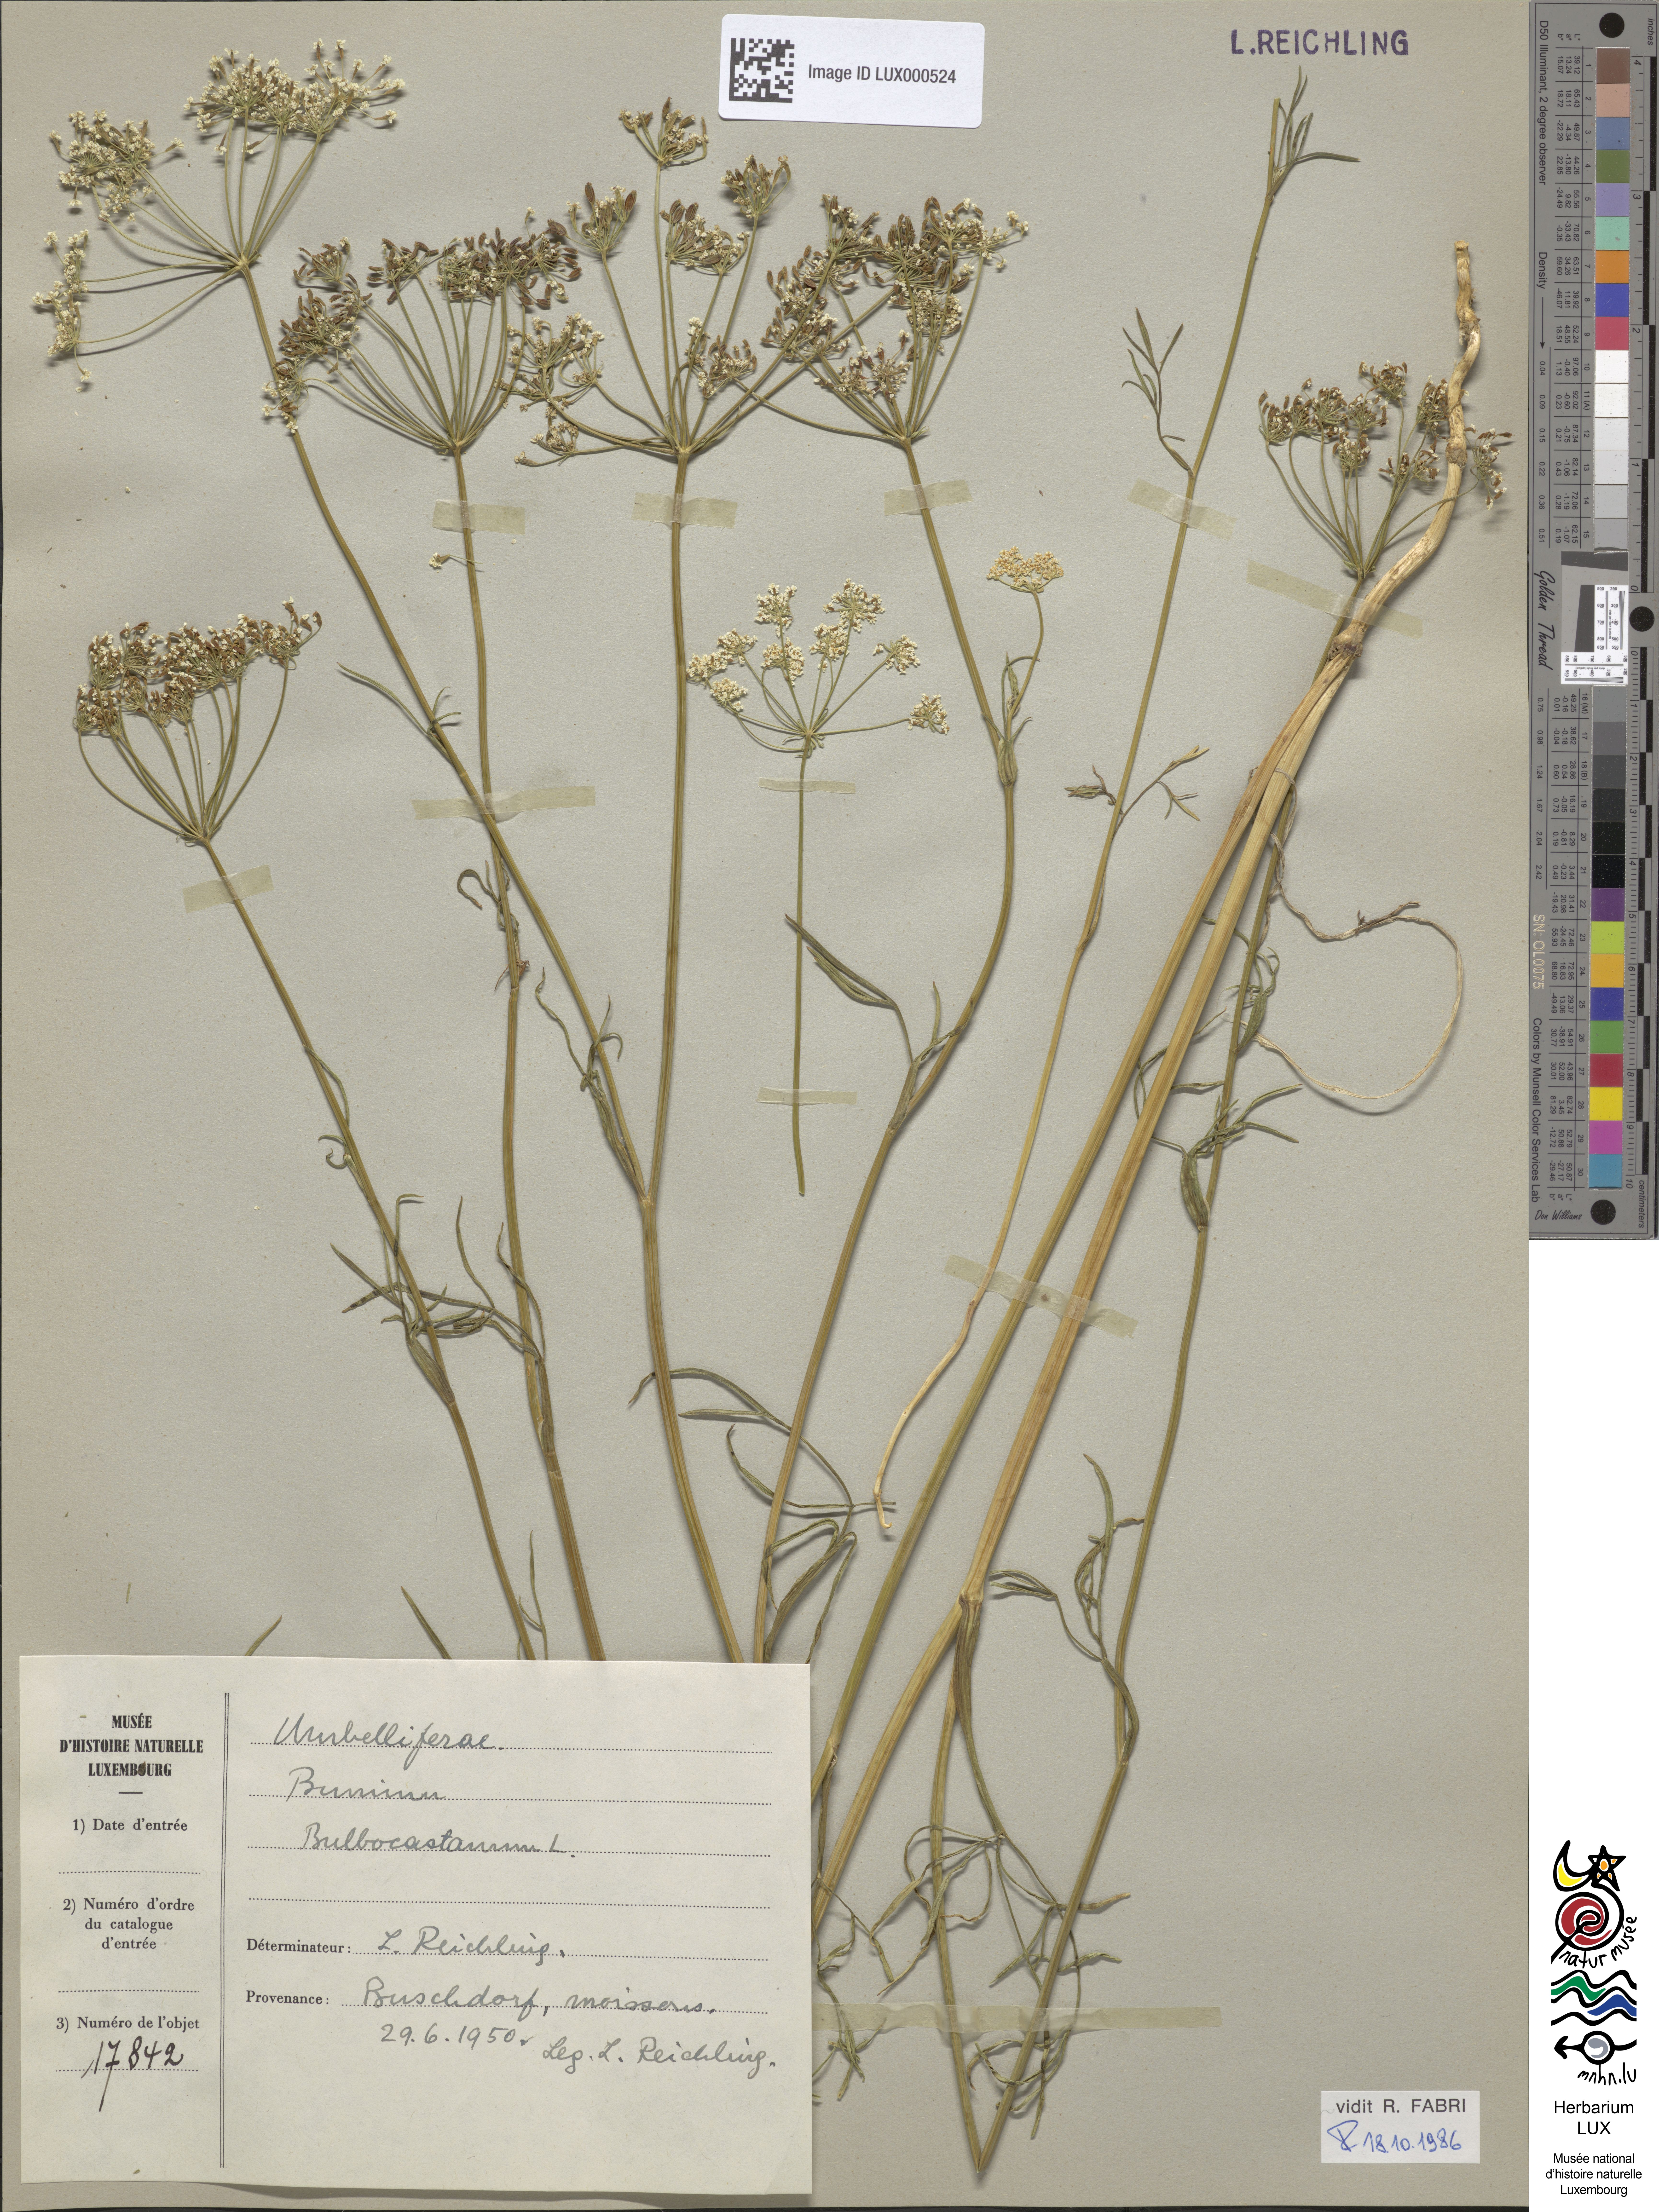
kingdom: Plantae
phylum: Tracheophyta
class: Magnoliopsida
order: Apiales
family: Apiaceae
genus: Bunium
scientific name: Bunium bulbocastanum
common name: Great pignut
